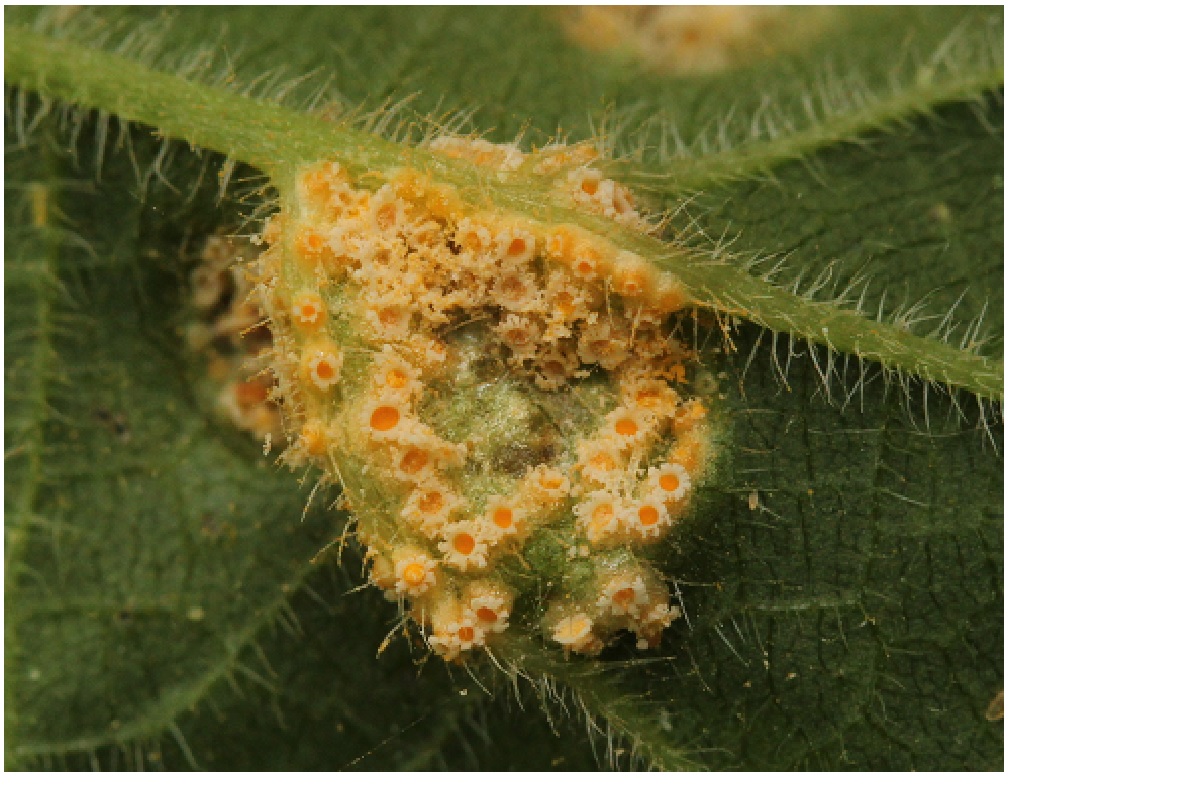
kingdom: Fungi
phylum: Basidiomycota
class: Pucciniomycetes
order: Pucciniales
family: Pucciniaceae
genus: Puccinia
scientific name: Puccinia
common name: tvecellerust
